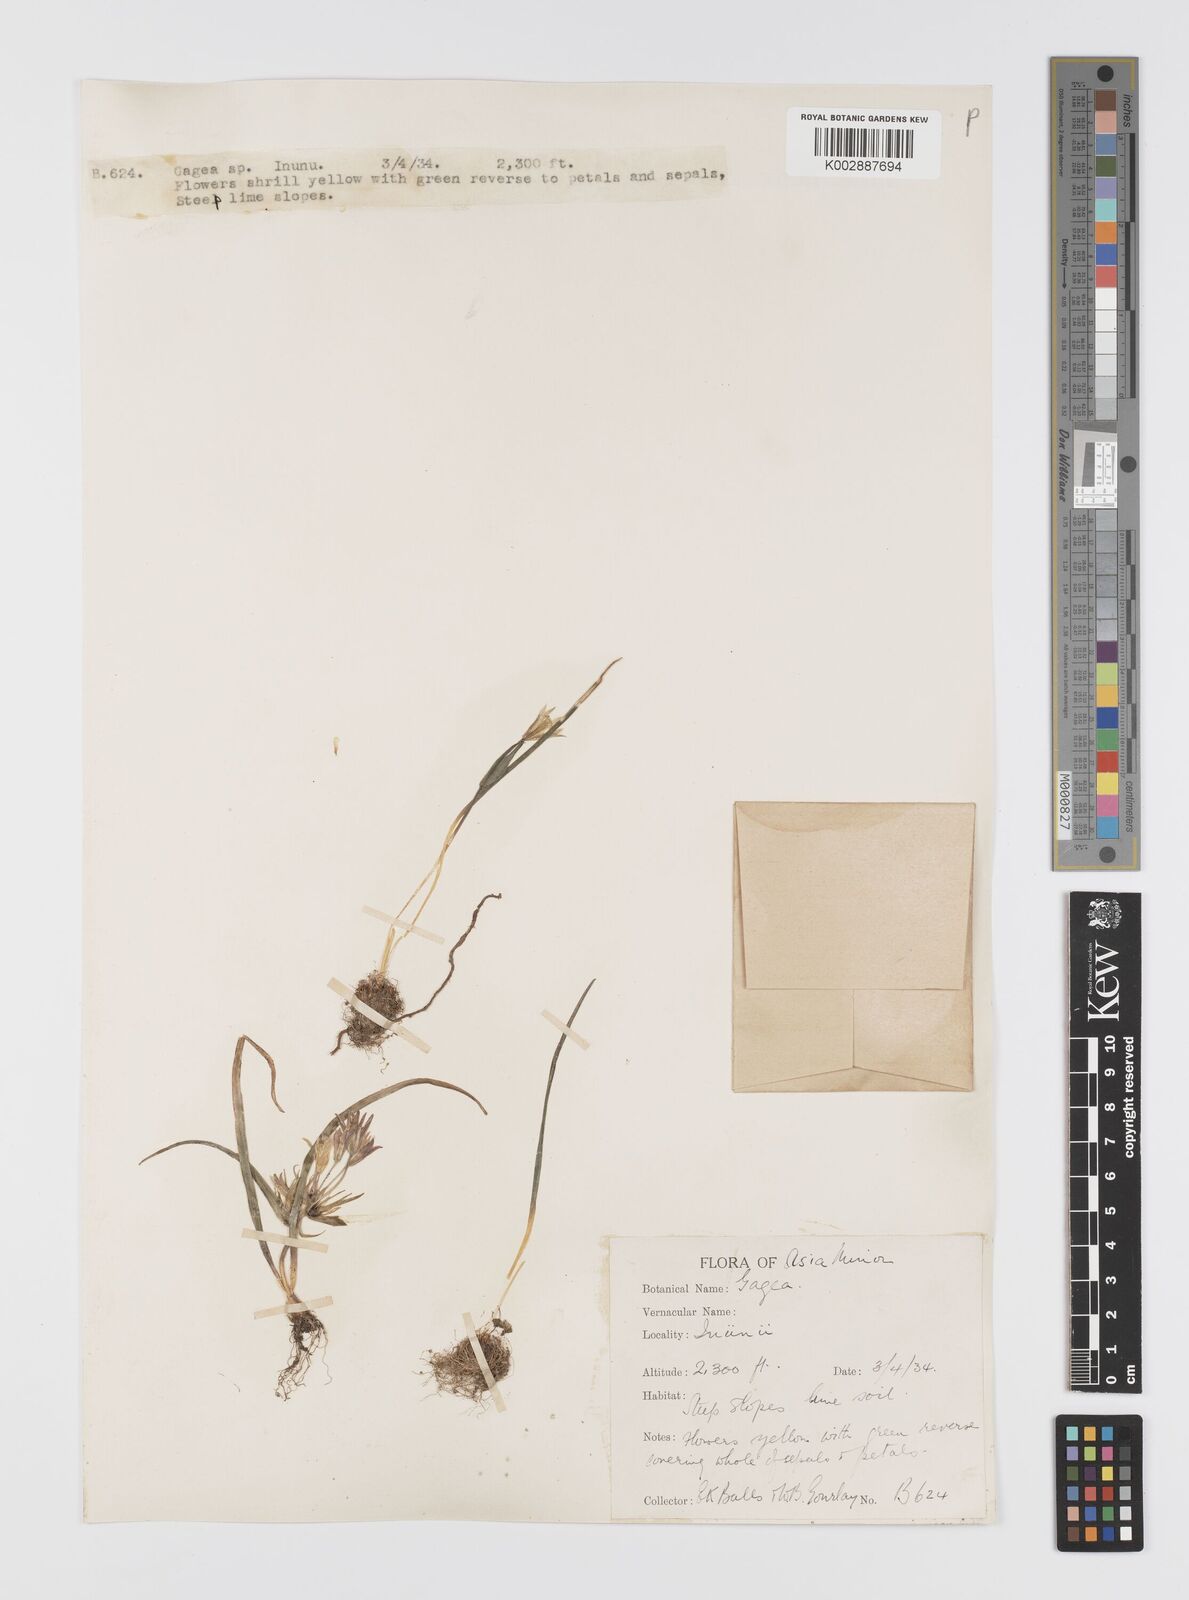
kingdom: Plantae
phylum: Tracheophyta
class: Liliopsida
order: Liliales
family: Liliaceae
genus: Gagea
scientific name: Gagea dubia
